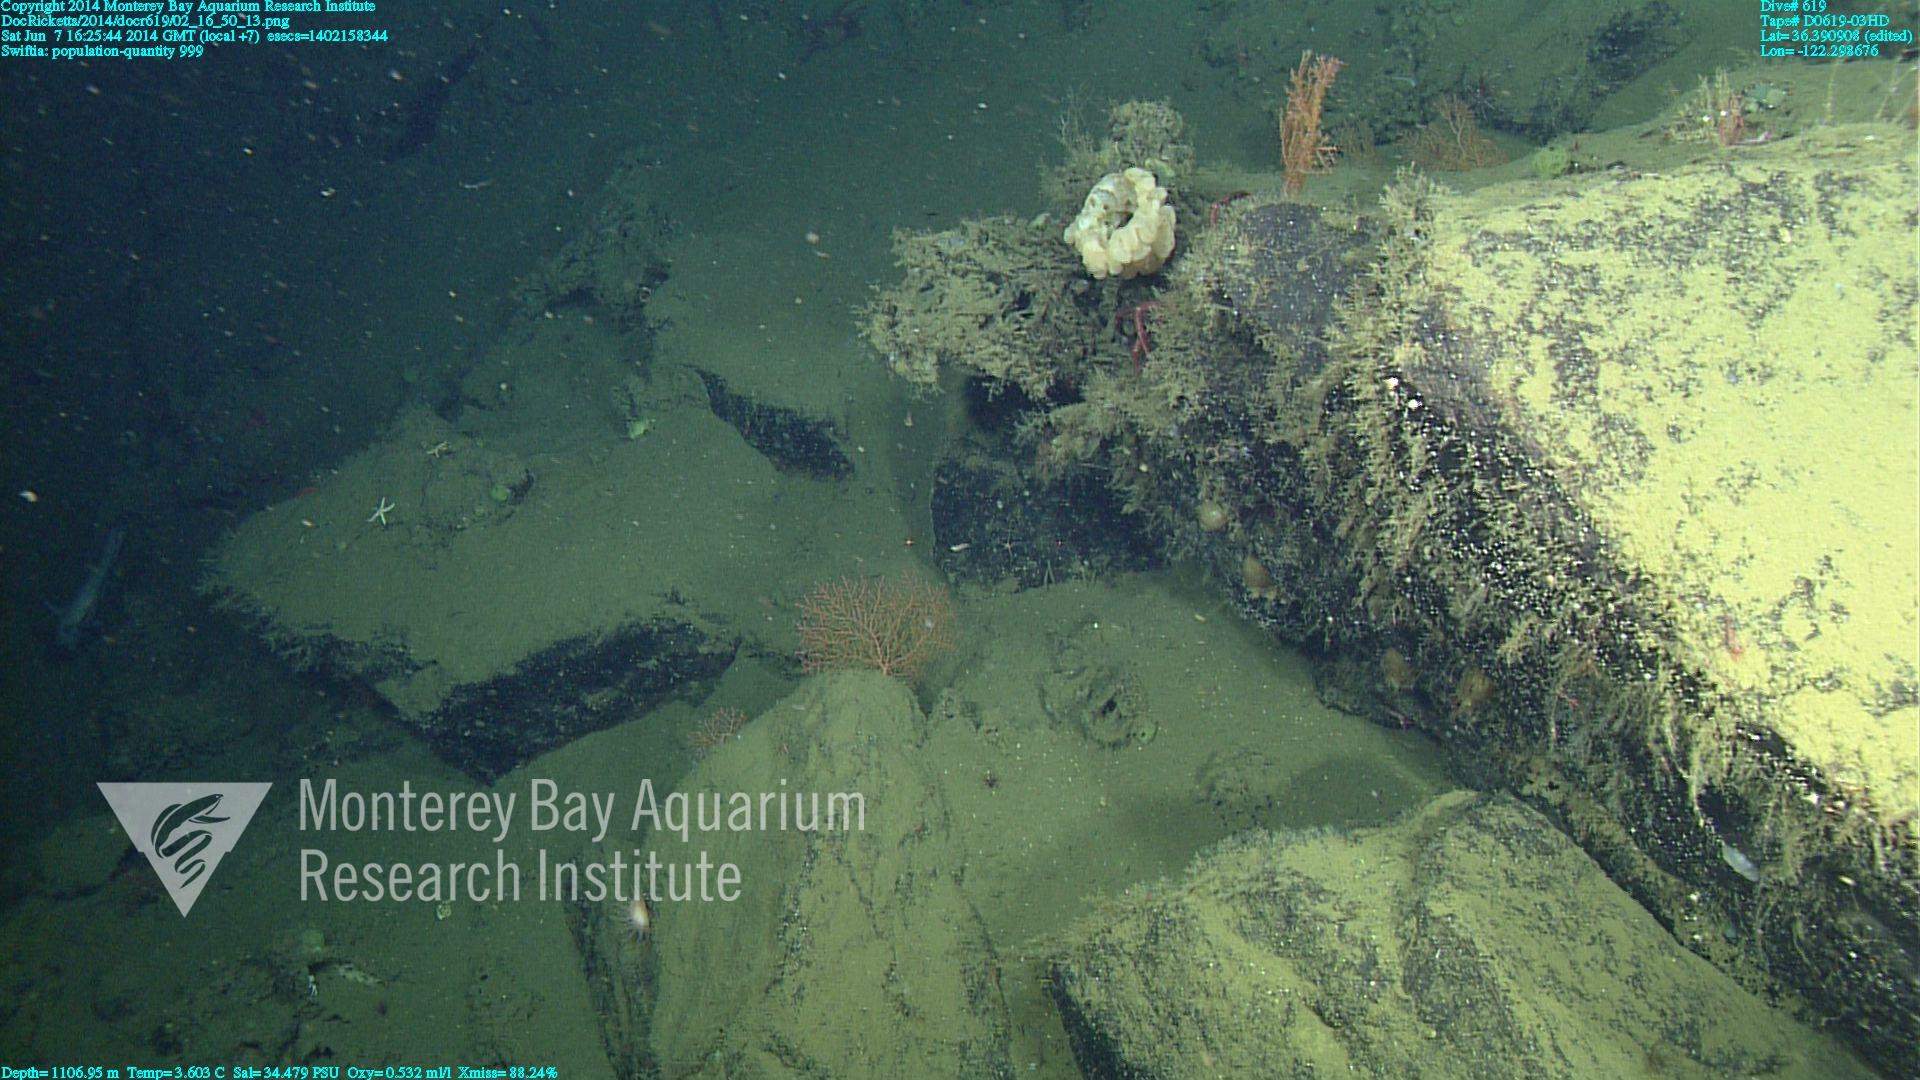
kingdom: Animalia
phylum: Cnidaria
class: Anthozoa
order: Malacalcyonacea
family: Plexauridae
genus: Swiftia
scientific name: Swiftia
